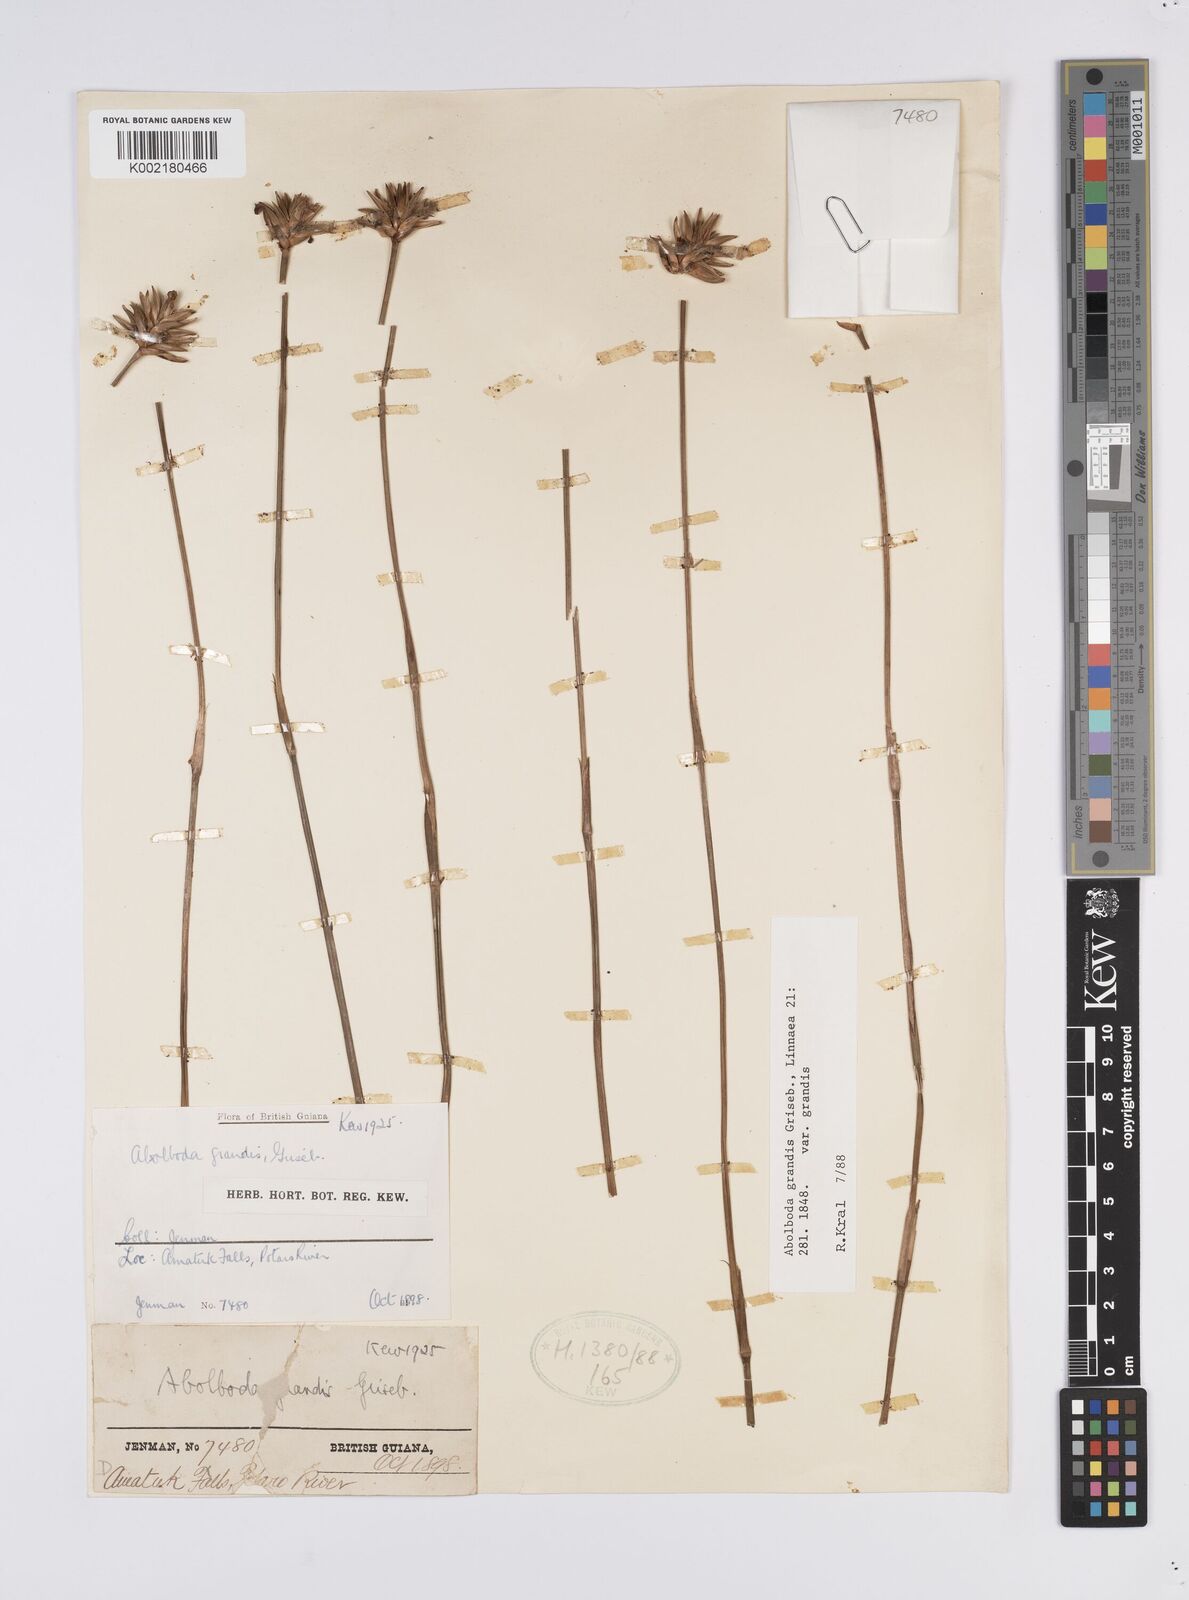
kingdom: Plantae
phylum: Tracheophyta
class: Liliopsida
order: Poales
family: Xyridaceae
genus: Abolboda
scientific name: Abolboda grandis
